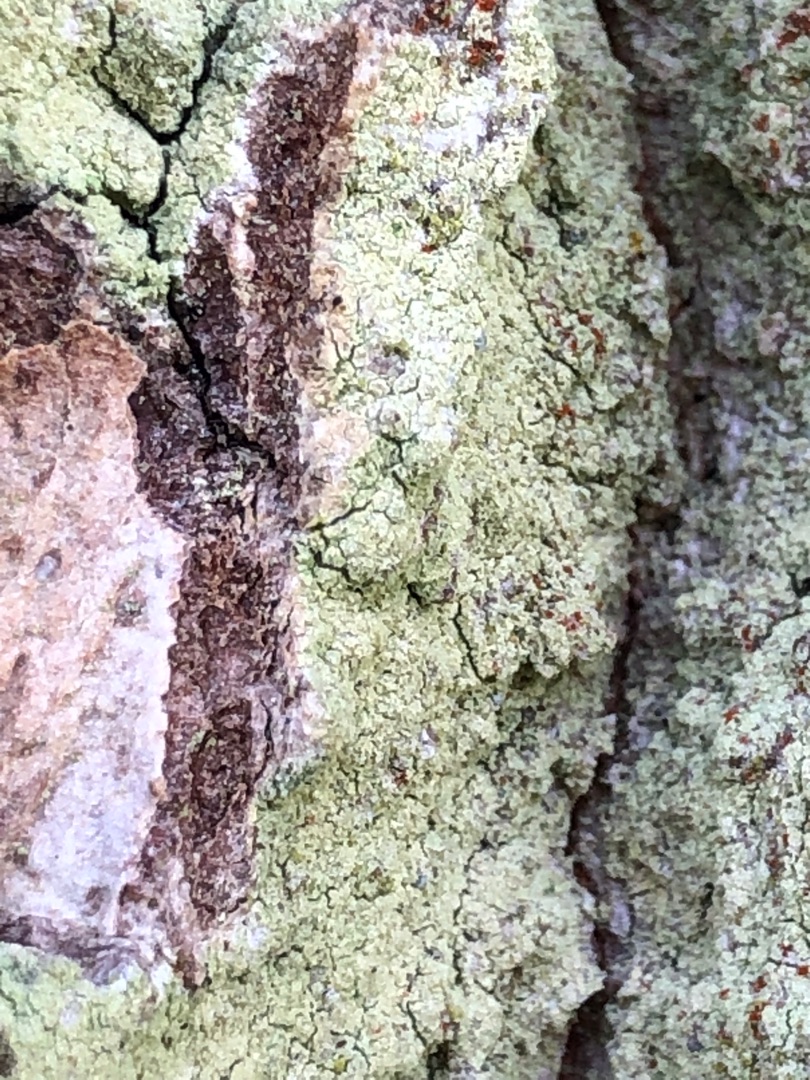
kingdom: Fungi
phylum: Ascomycota
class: Lecanoromycetes
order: Lecanorales
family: Stereocaulaceae
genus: Lepraria
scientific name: Lepraria incana
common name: Almindelig støvlav
